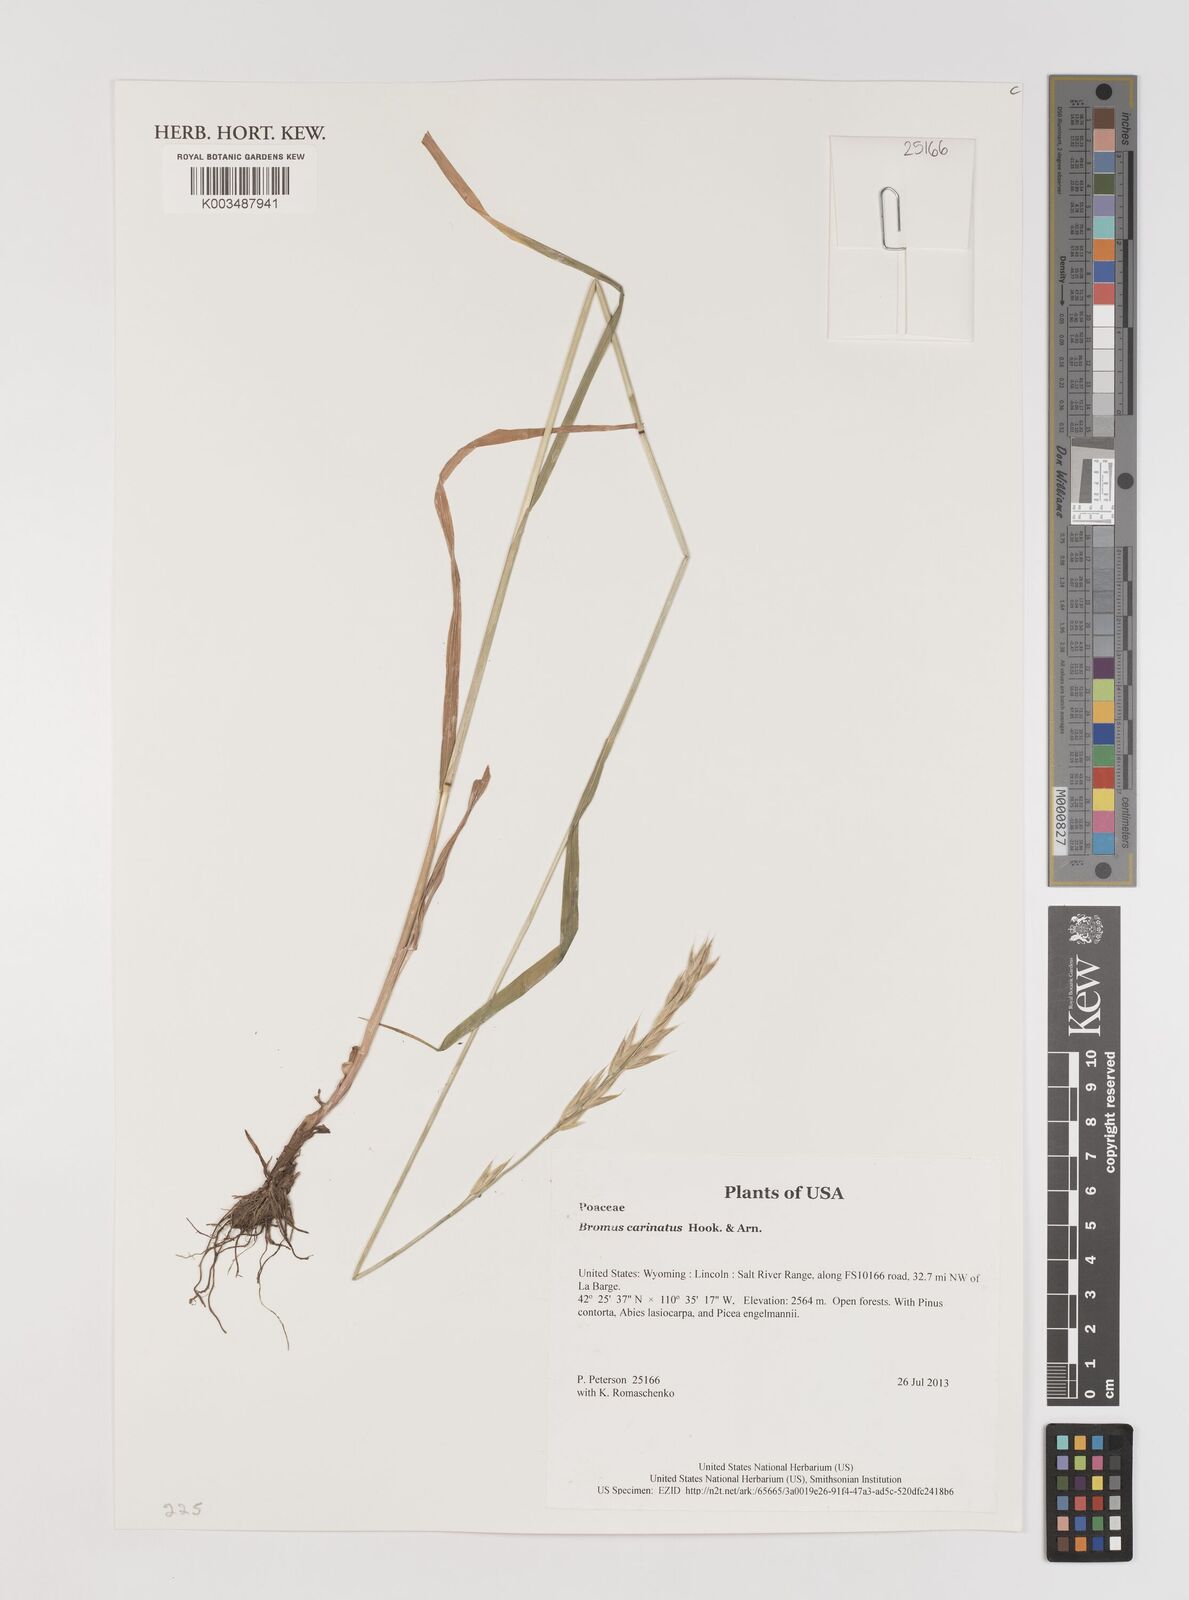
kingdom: Plantae
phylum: Tracheophyta
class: Liliopsida
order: Poales
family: Poaceae
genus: Bromus
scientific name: Bromus carinatus
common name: Mountain brome
